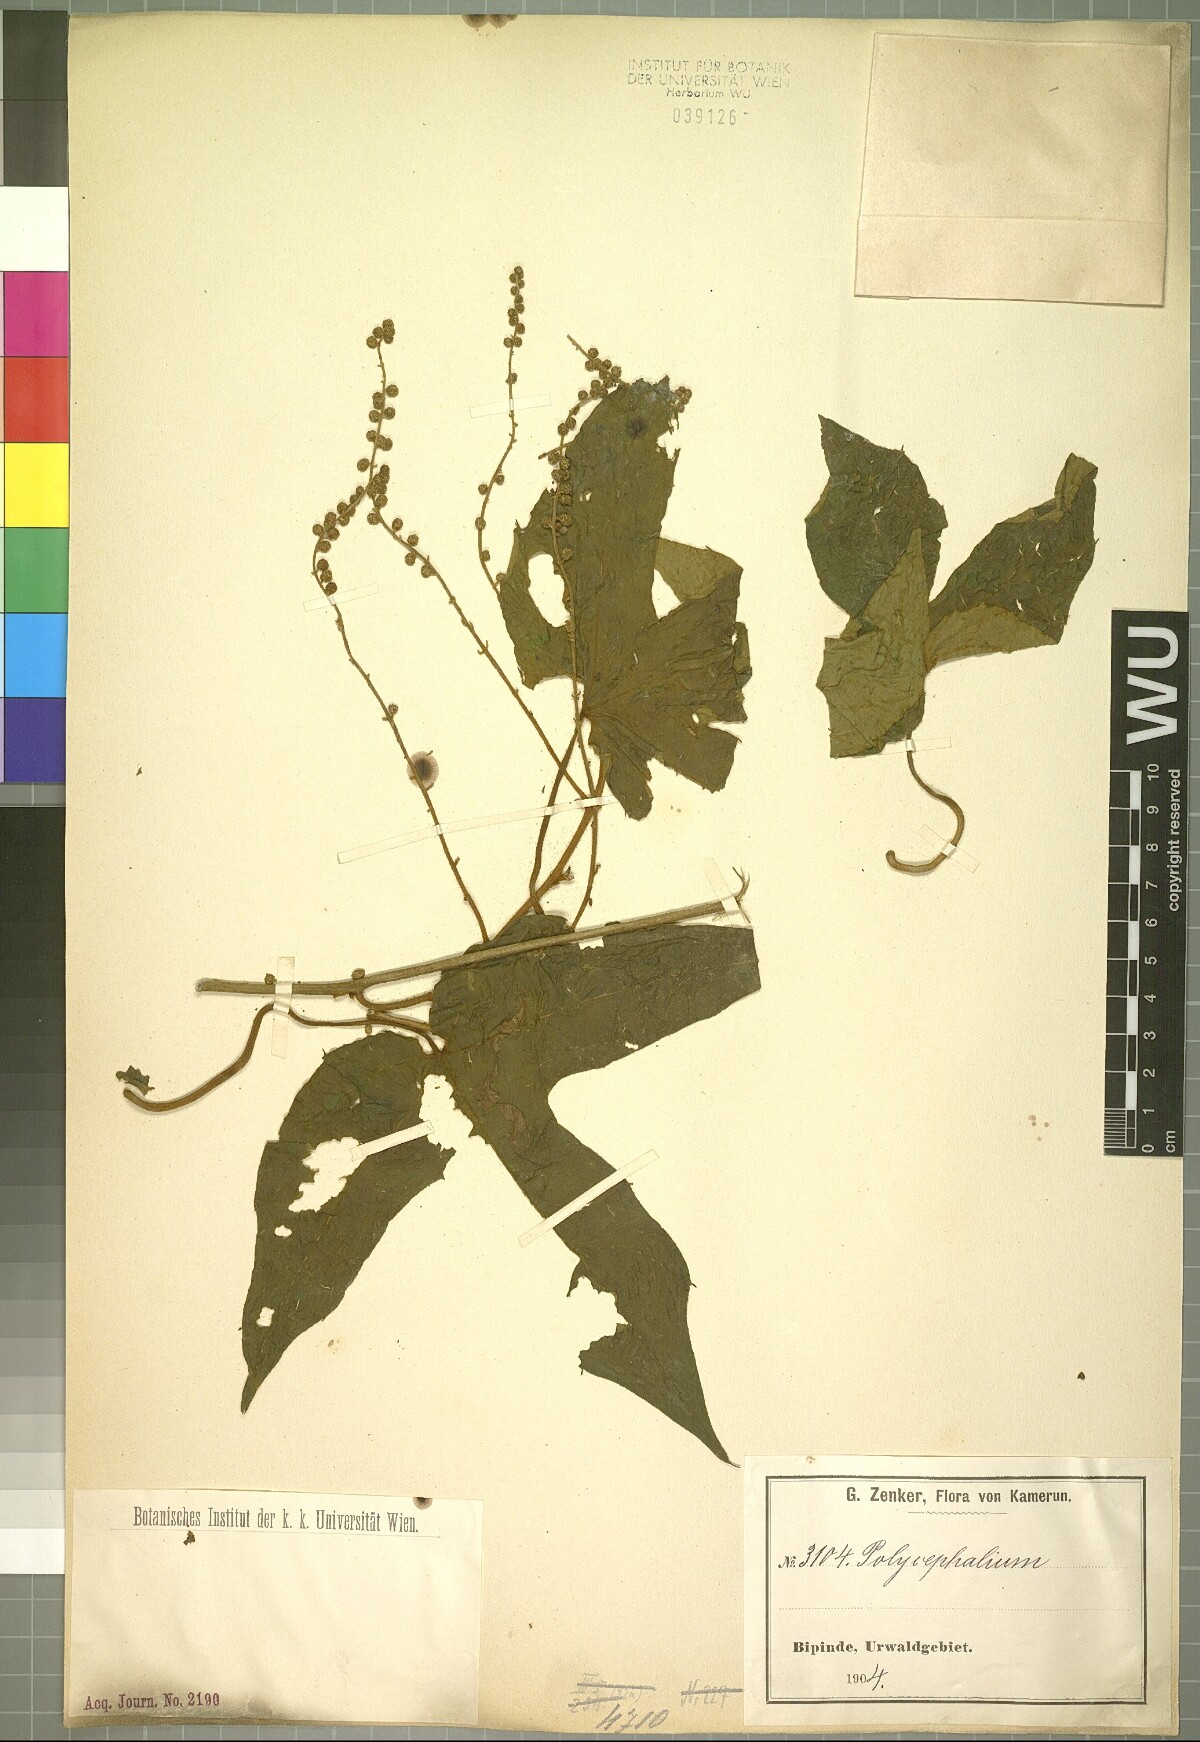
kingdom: Plantae
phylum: Tracheophyta
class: Magnoliopsida
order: Icacinales
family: Icacinaceae
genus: Pyrenacantha
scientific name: Pyrenacantha
